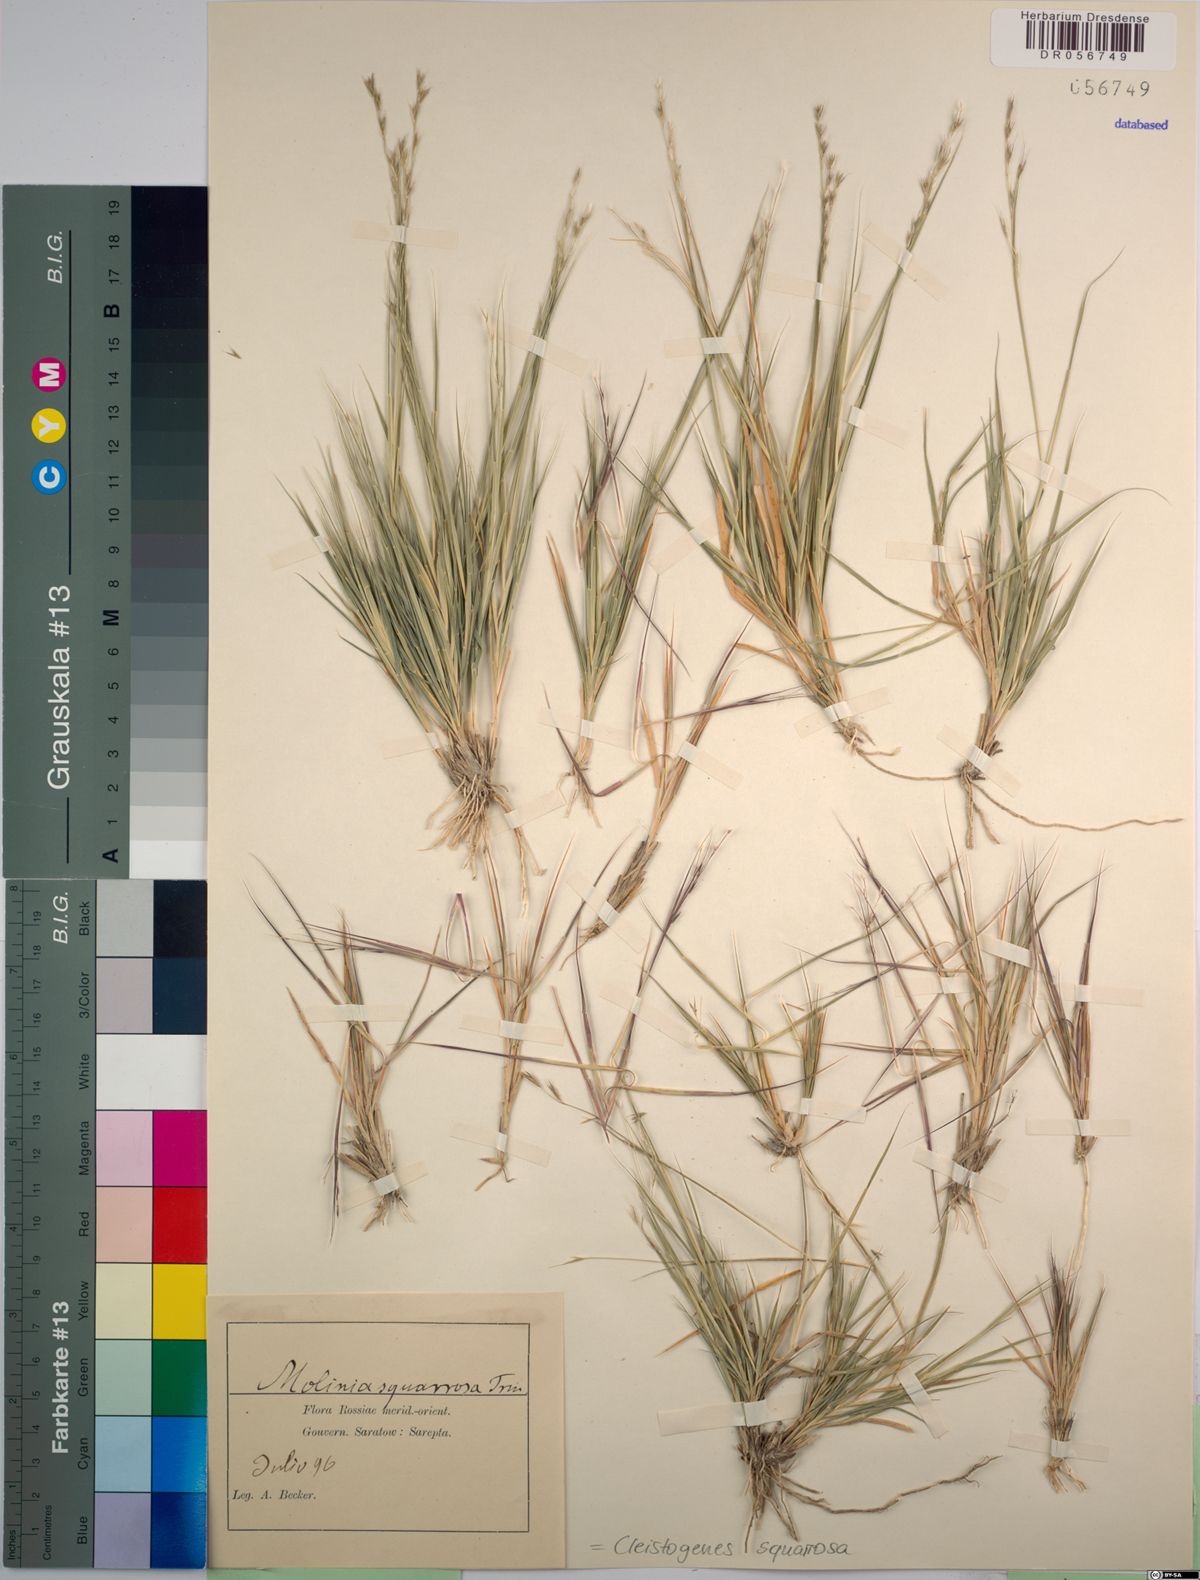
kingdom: Plantae
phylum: Tracheophyta
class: Liliopsida
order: Poales
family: Poaceae
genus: Cleistogenes
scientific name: Cleistogenes squarrosa
